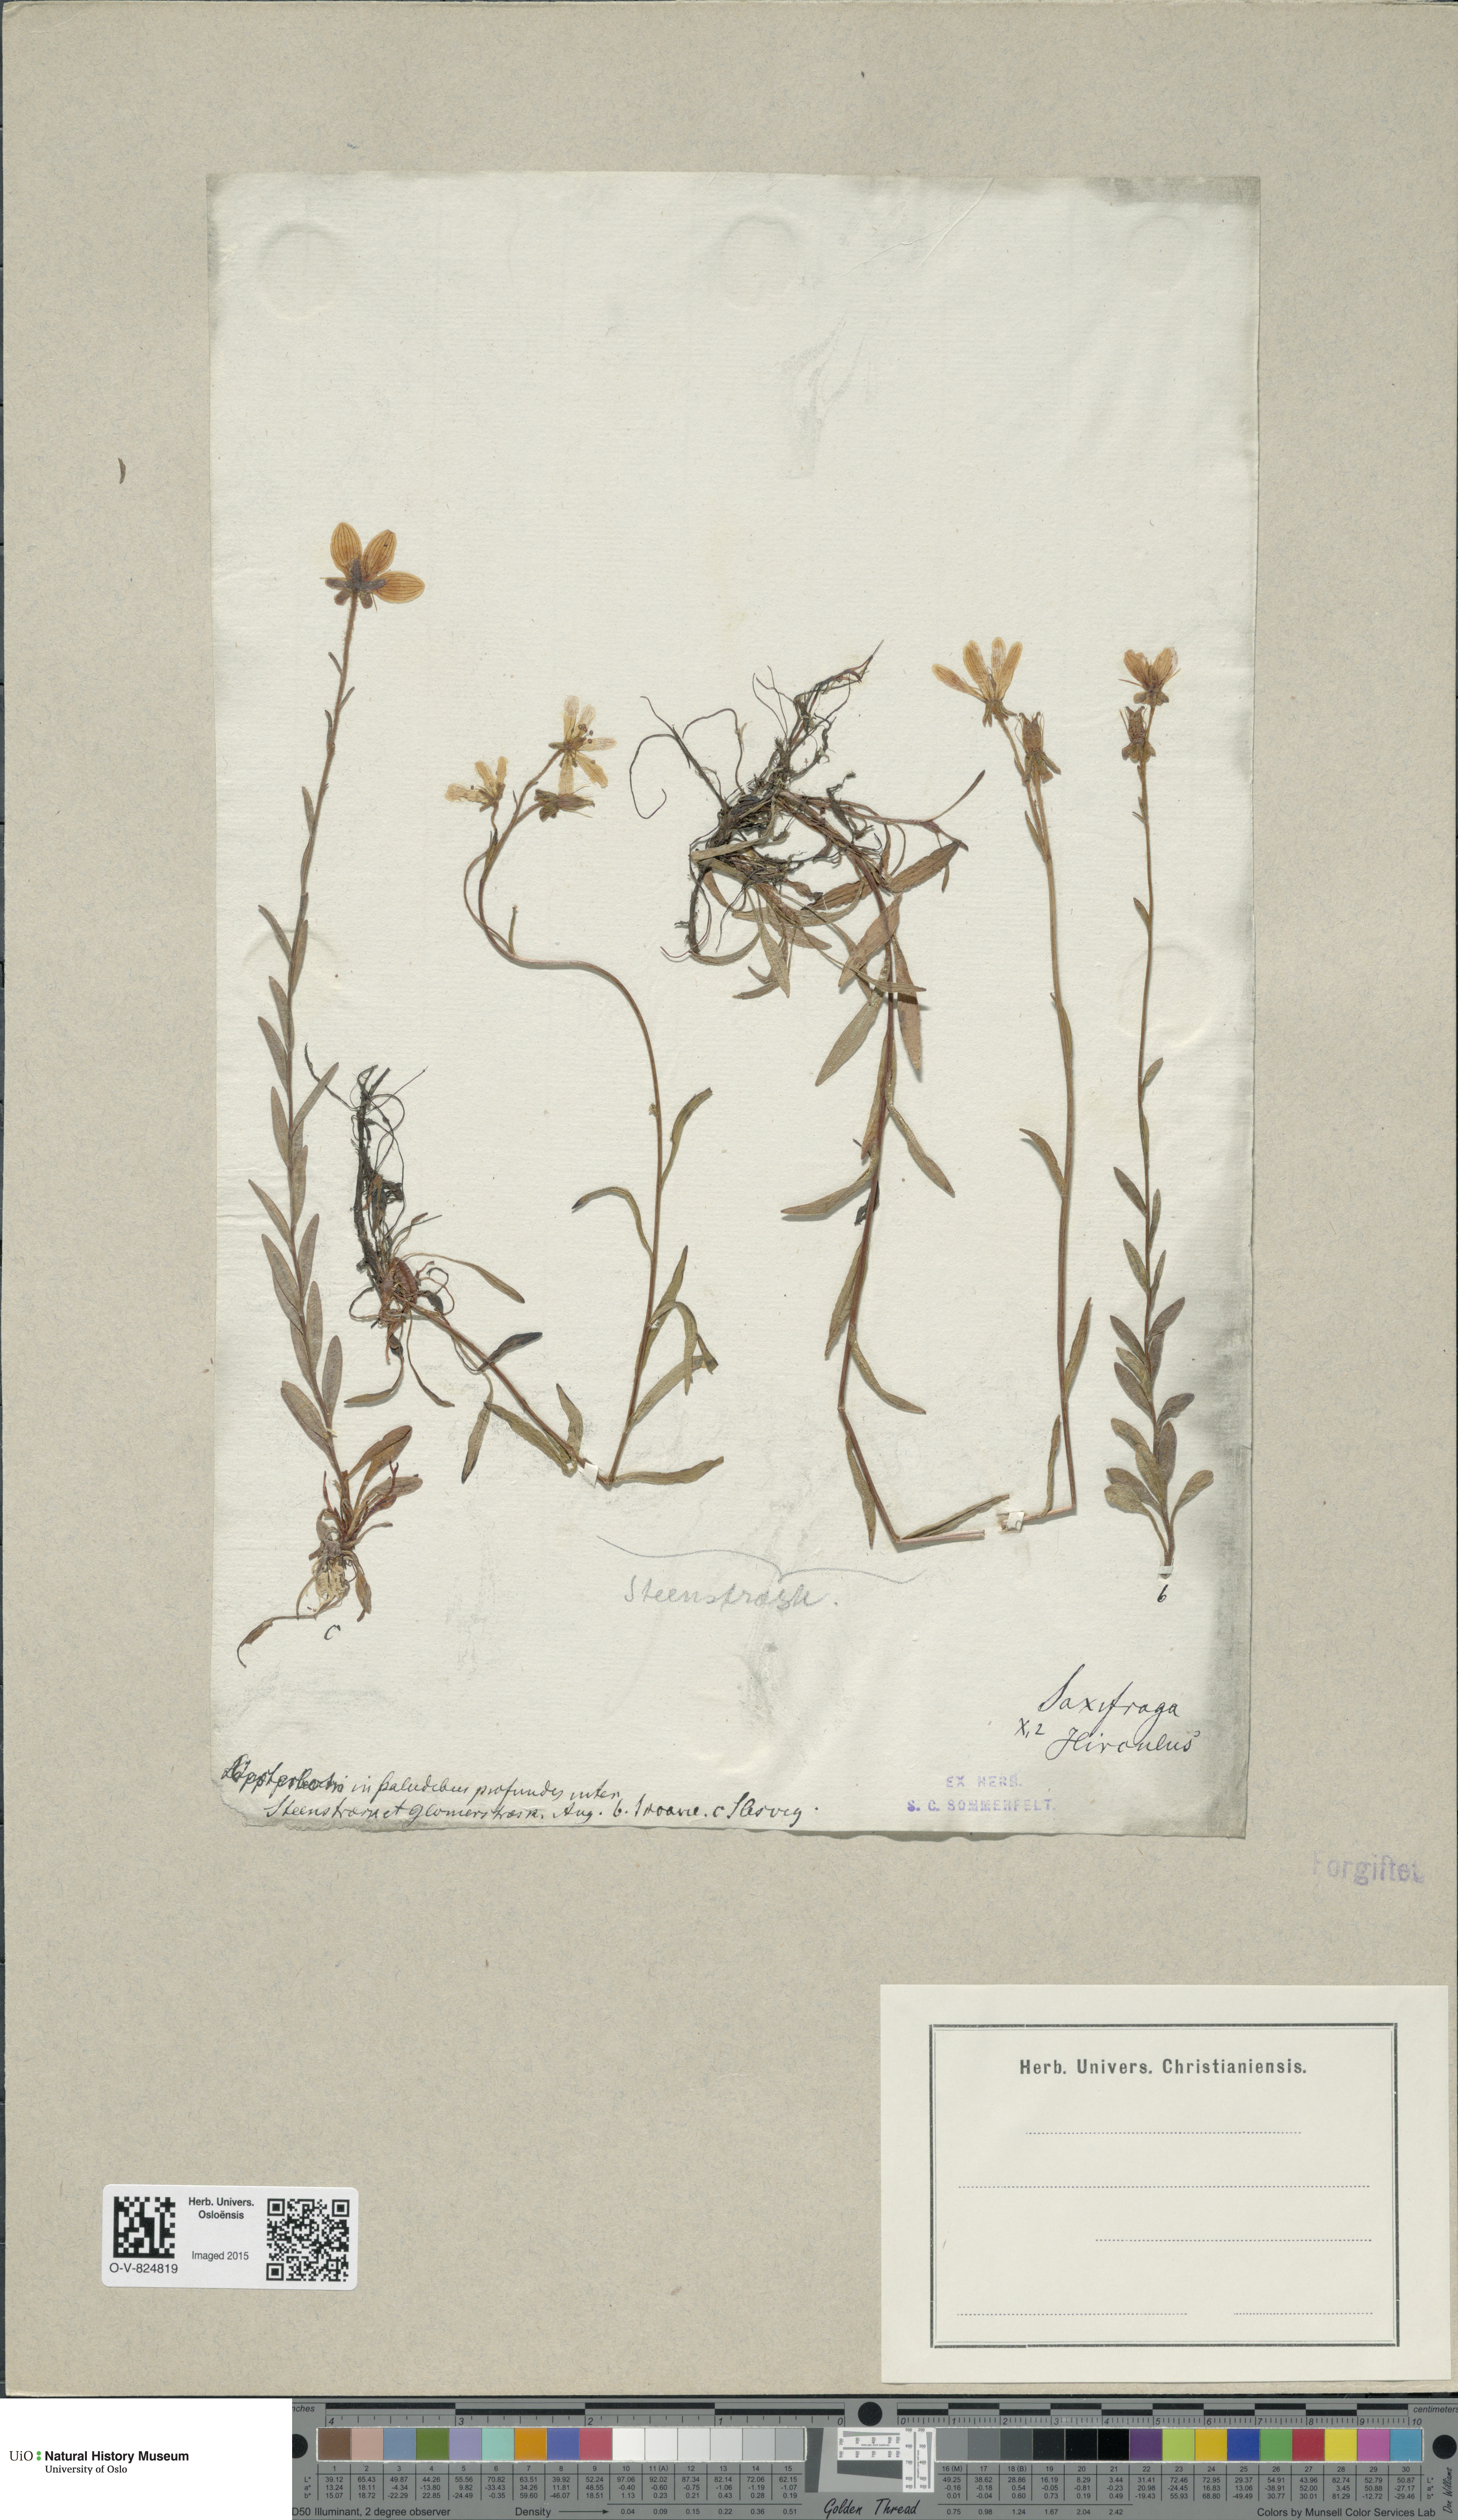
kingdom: Plantae
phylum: Tracheophyta
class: Magnoliopsida
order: Saxifragales
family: Saxifragaceae
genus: Saxifraga
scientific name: Saxifraga hirculus
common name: Yellow marsh saxifrage
